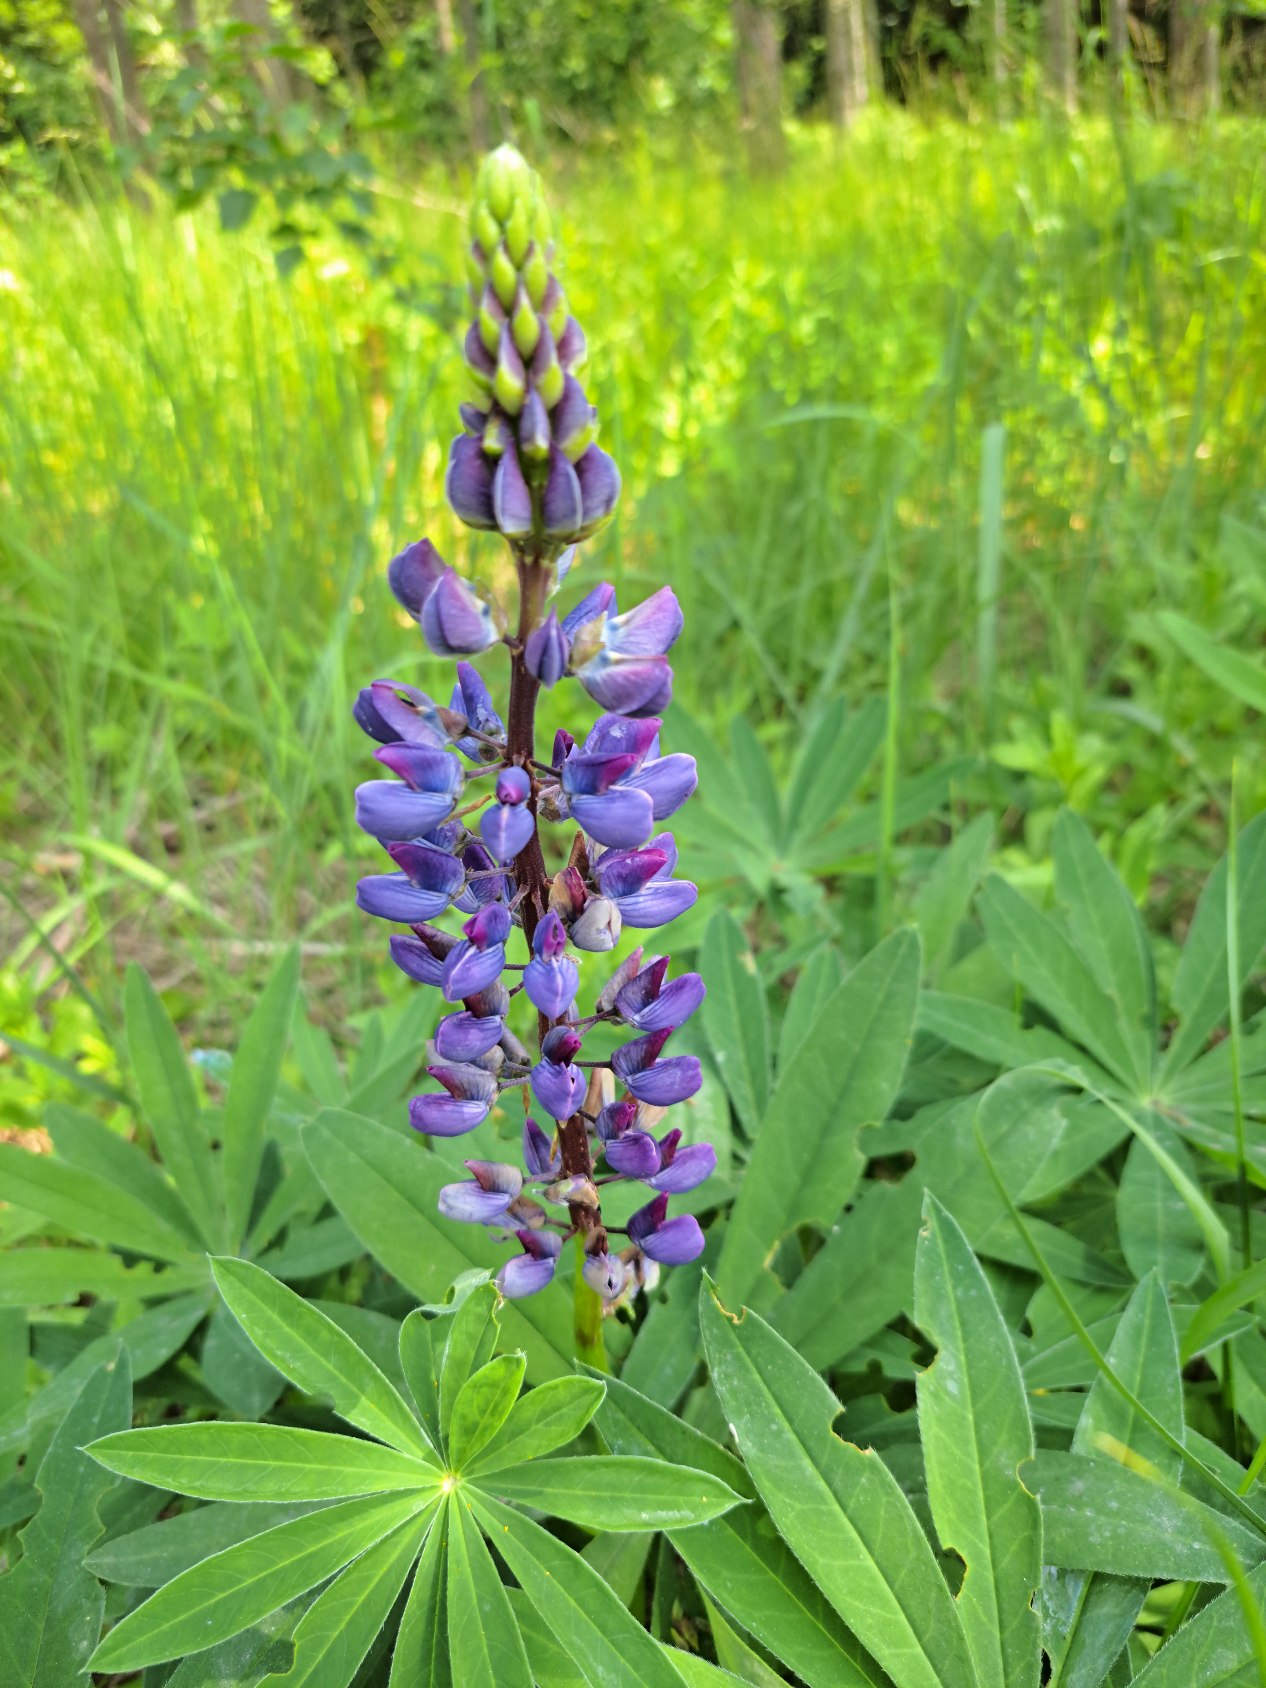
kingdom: Plantae
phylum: Tracheophyta
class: Magnoliopsida
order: Fabales
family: Fabaceae
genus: Lupinus
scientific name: Lupinus polyphyllus
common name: Mangebladet lupin
